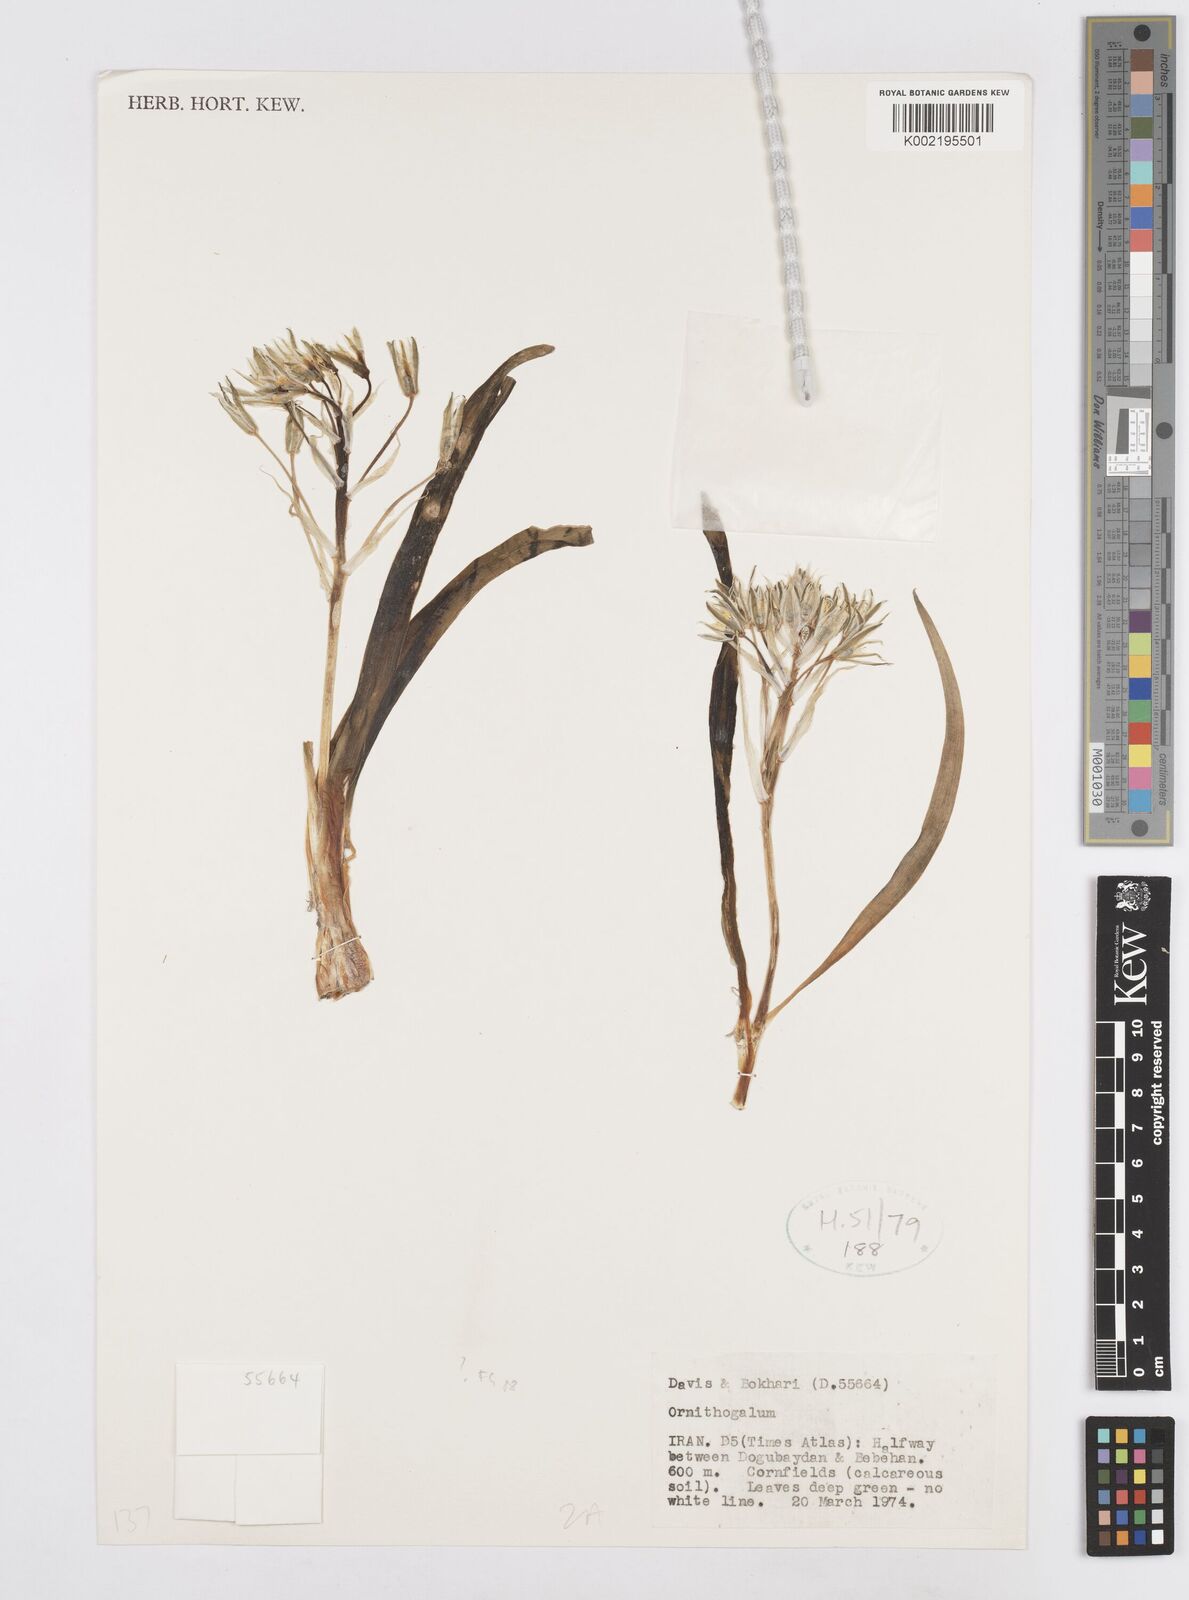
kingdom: Plantae
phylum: Tracheophyta
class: Liliopsida
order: Asparagales
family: Asparagaceae
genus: Ornithogalum
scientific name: Ornithogalum
